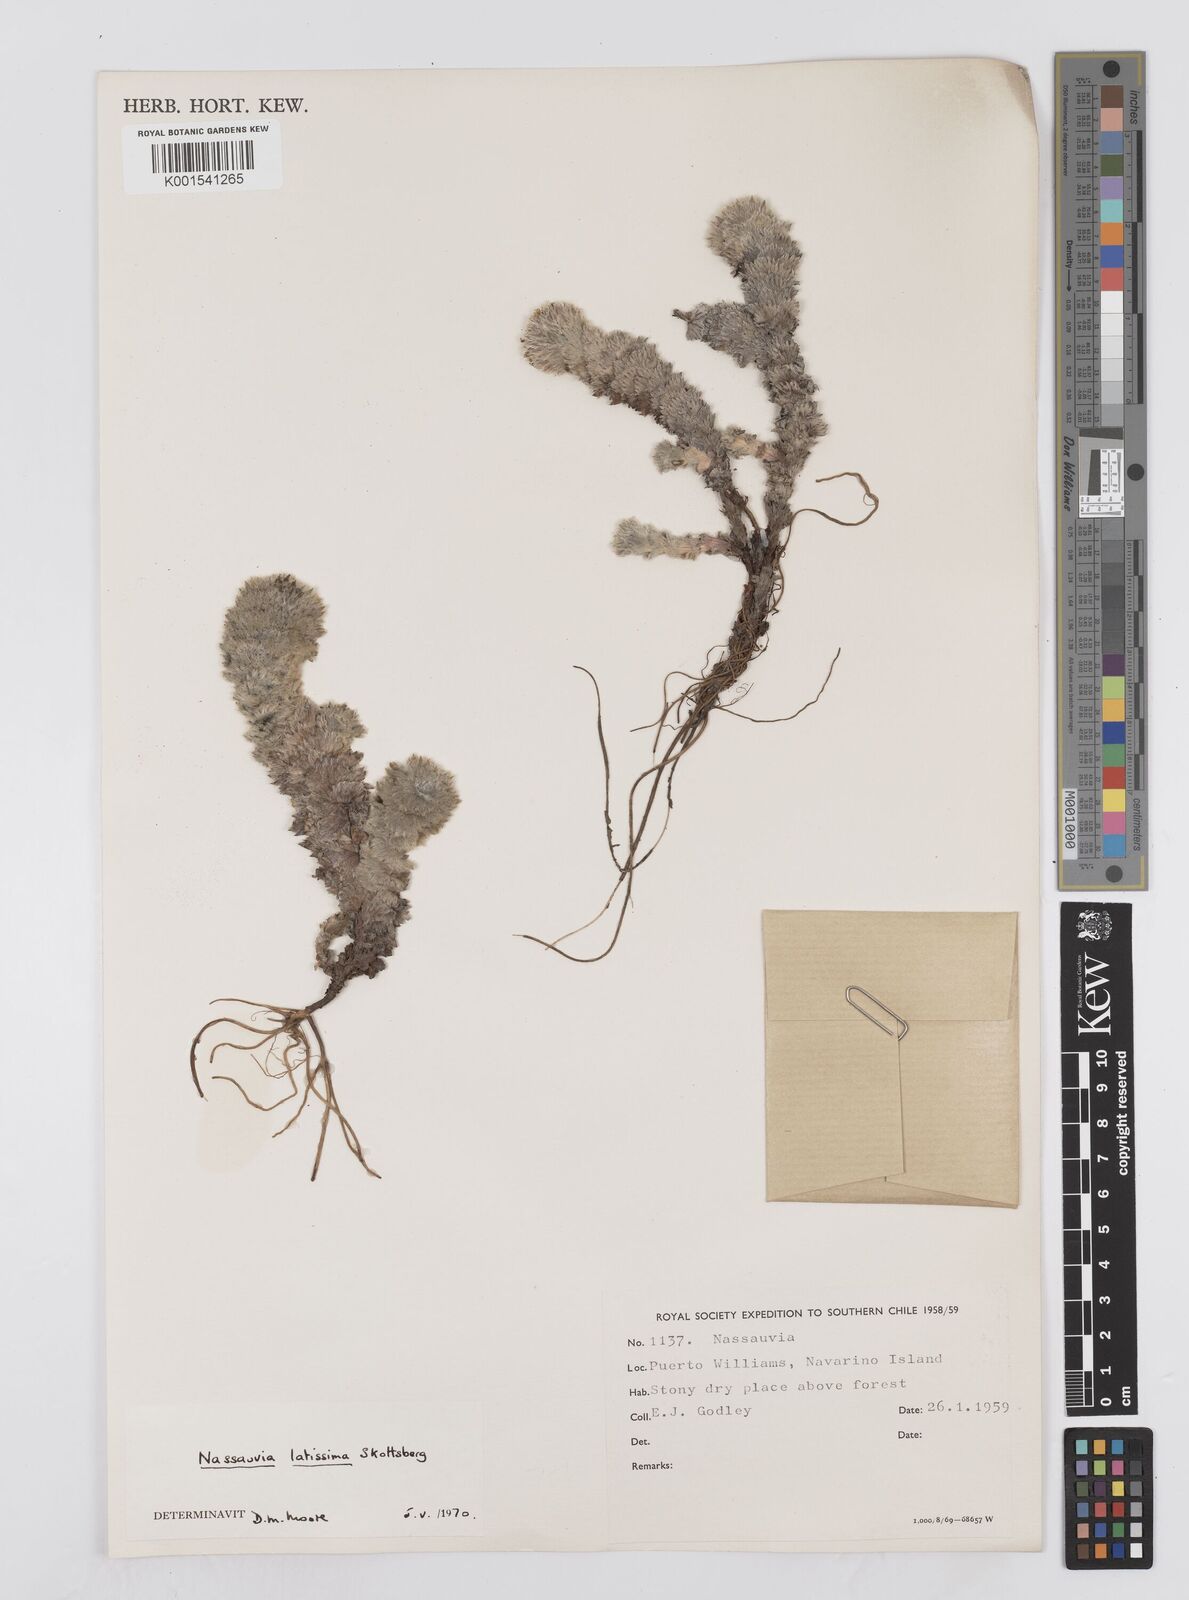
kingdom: Plantae
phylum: Tracheophyta
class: Magnoliopsida
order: Asterales
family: Asteraceae
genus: Nassauvia
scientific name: Nassauvia latissima
